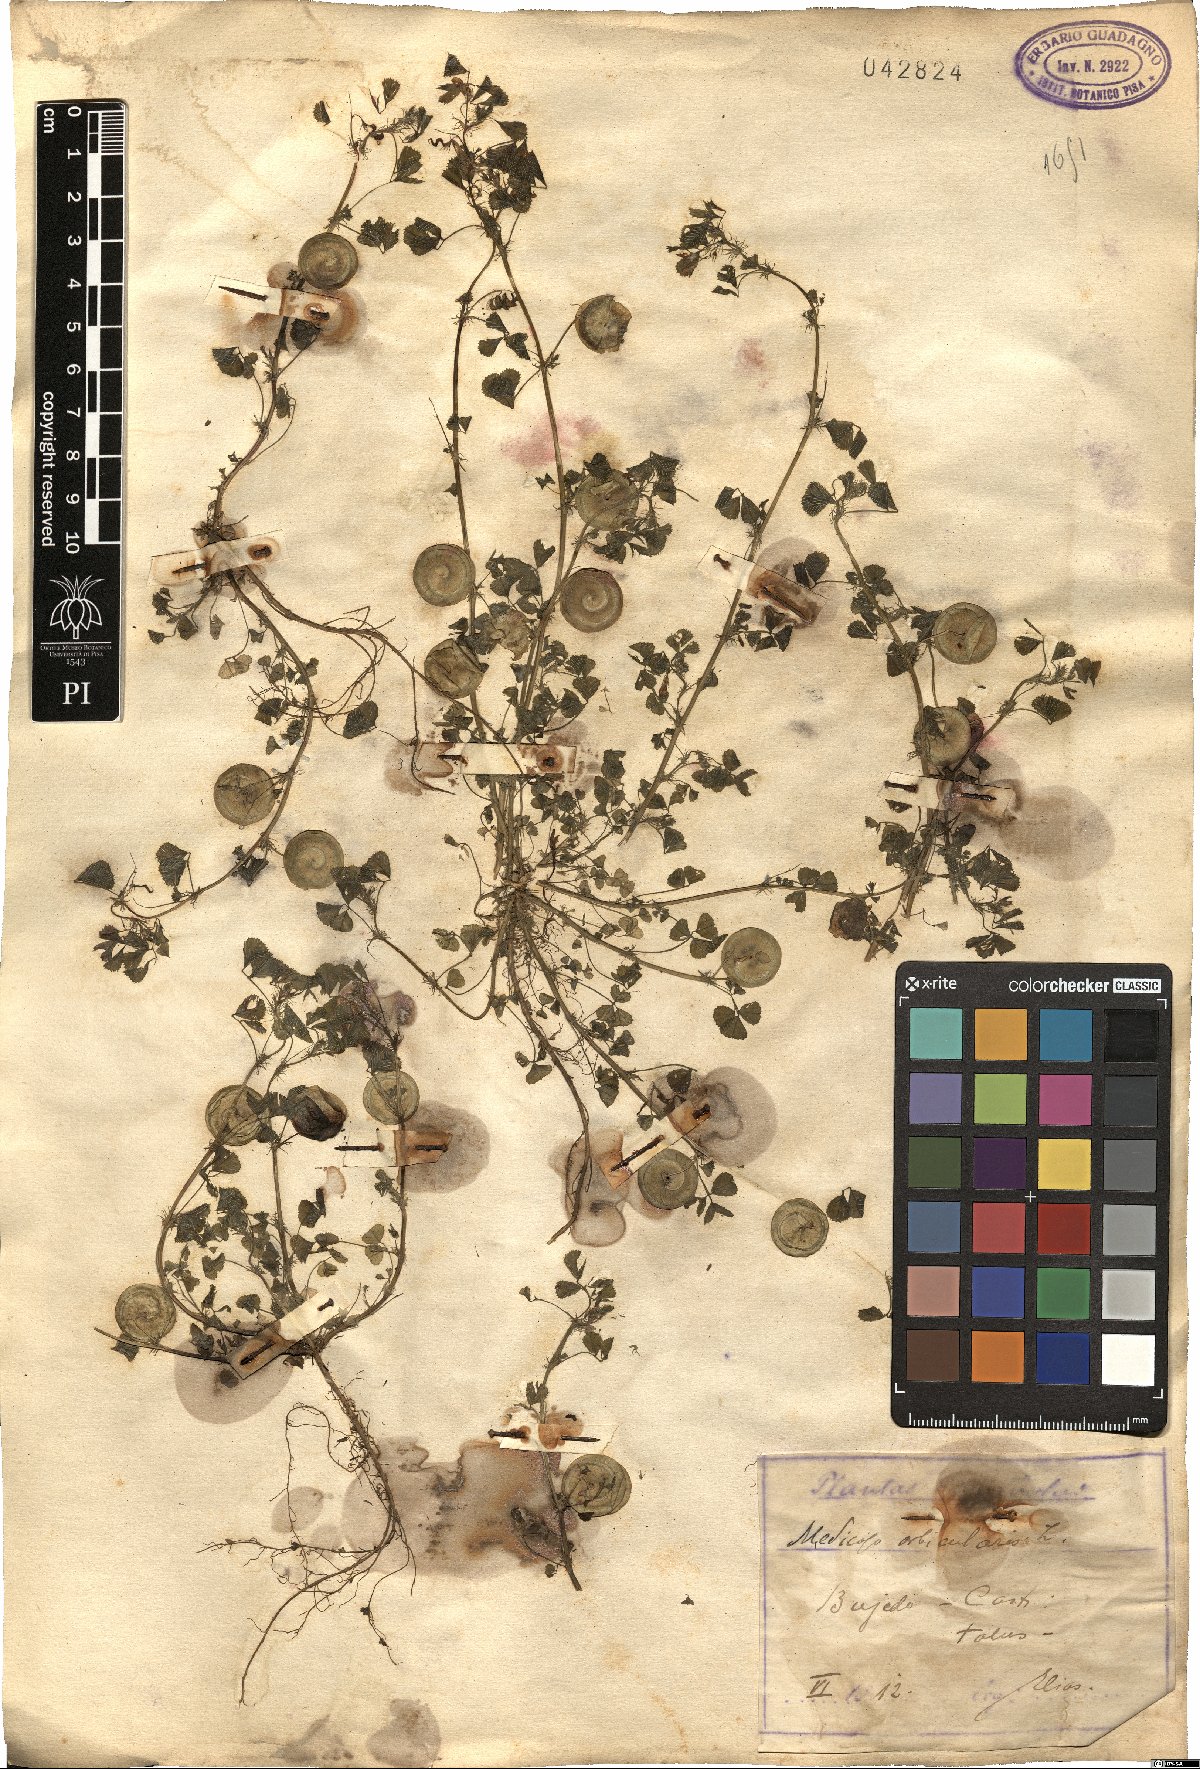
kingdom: Plantae
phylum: Tracheophyta
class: Magnoliopsida
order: Fabales
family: Fabaceae
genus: Medicago
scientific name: Medicago orbicularis
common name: Button medick
